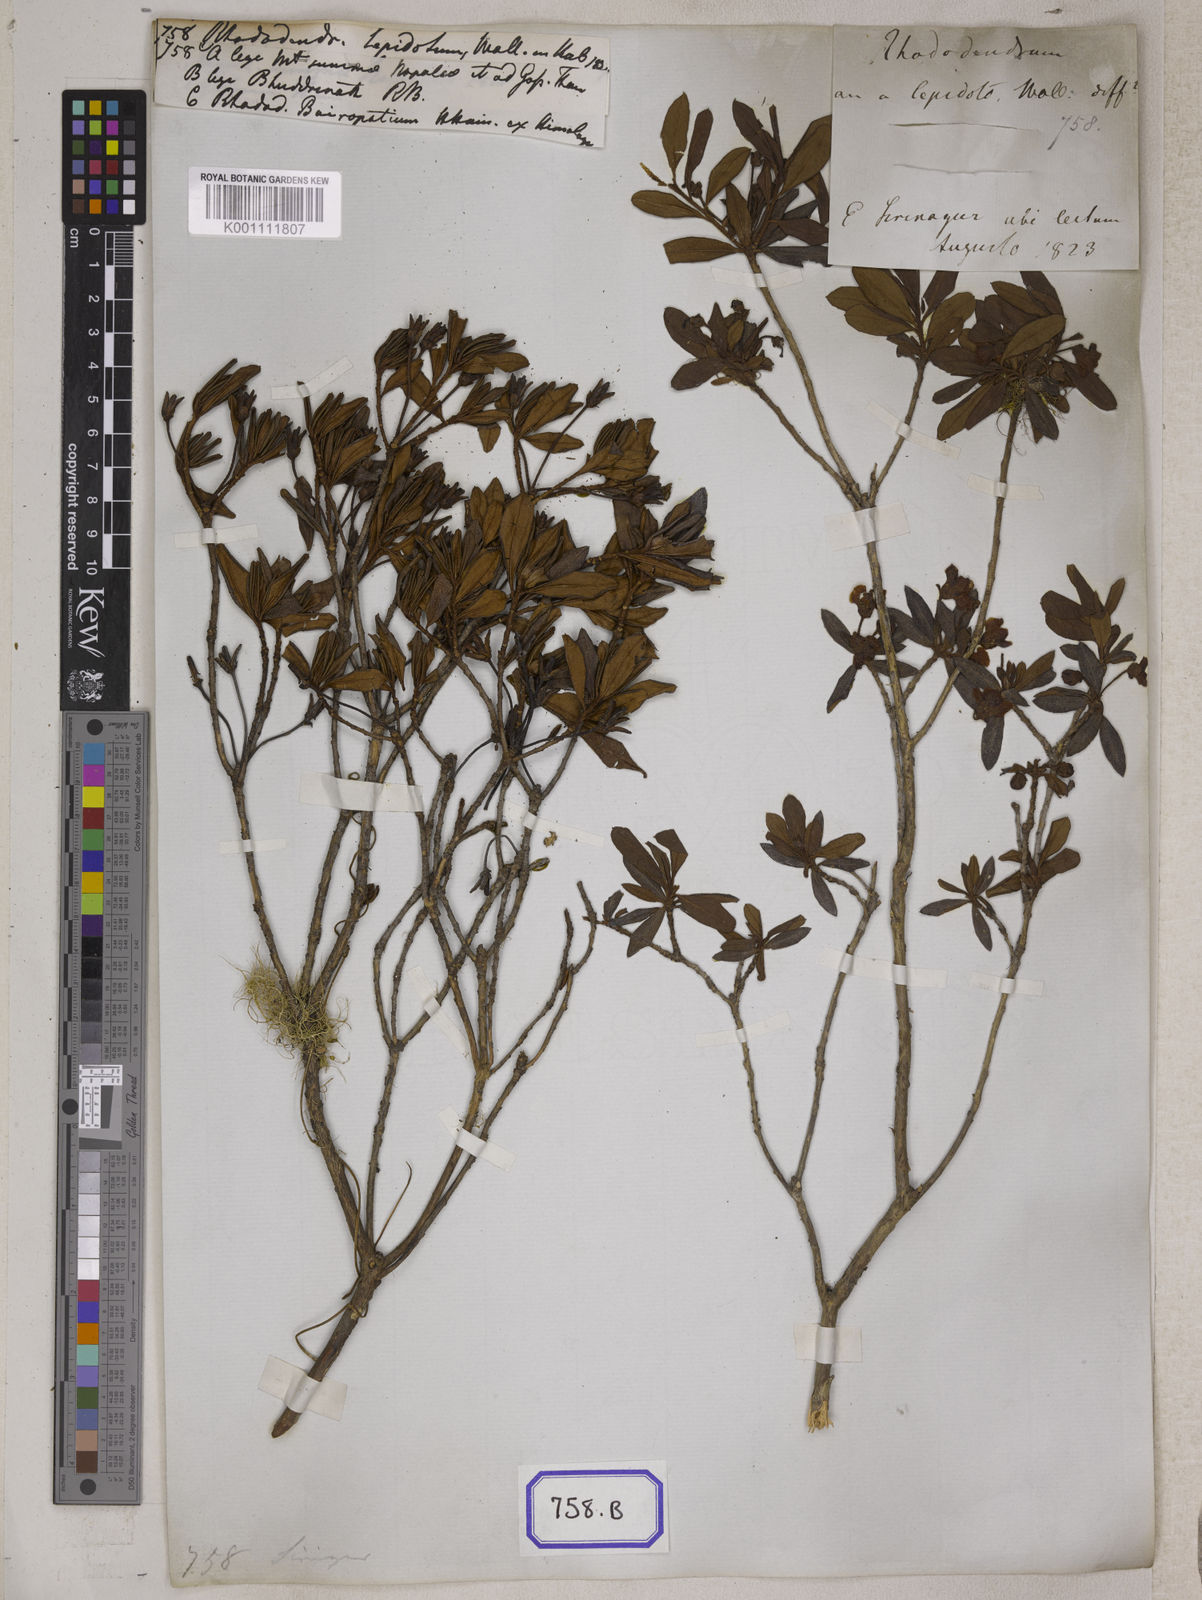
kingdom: Plantae
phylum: Tracheophyta
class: Magnoliopsida
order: Ericales
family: Ericaceae
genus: Rhododendron
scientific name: Rhododendron
